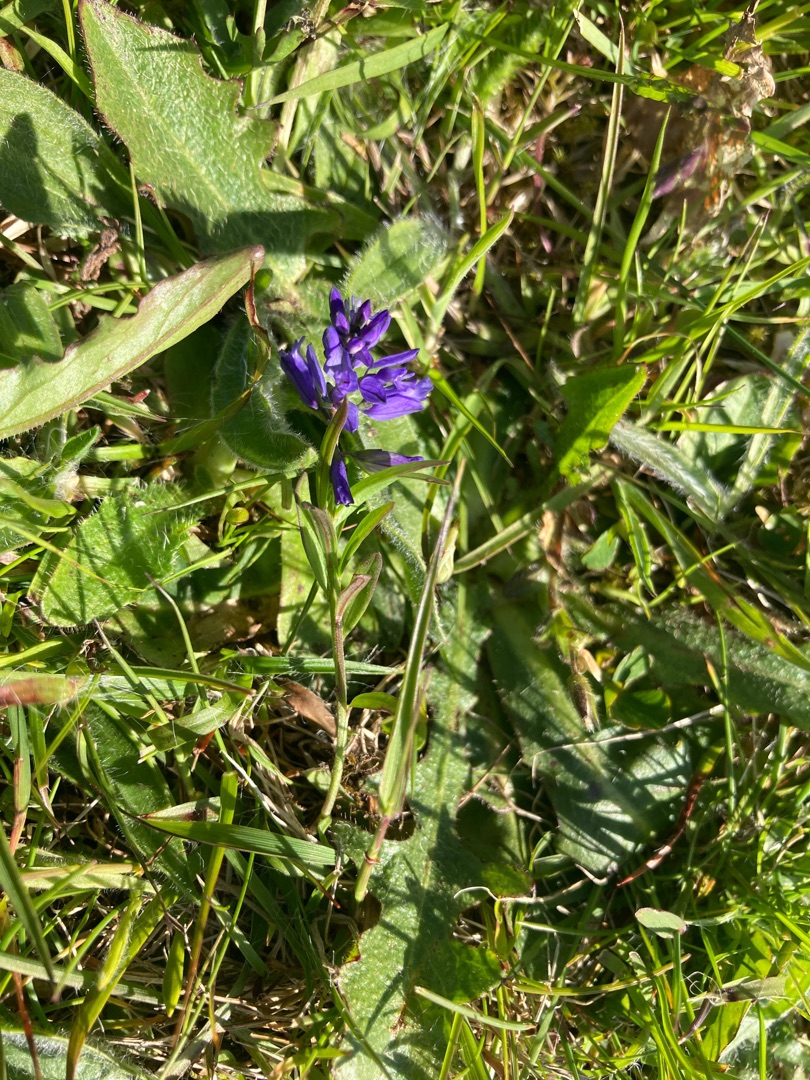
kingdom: Plantae
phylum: Tracheophyta
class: Magnoliopsida
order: Fabales
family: Polygalaceae
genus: Polygala
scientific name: Polygala vulgaris
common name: Almindelig mælkeurt
